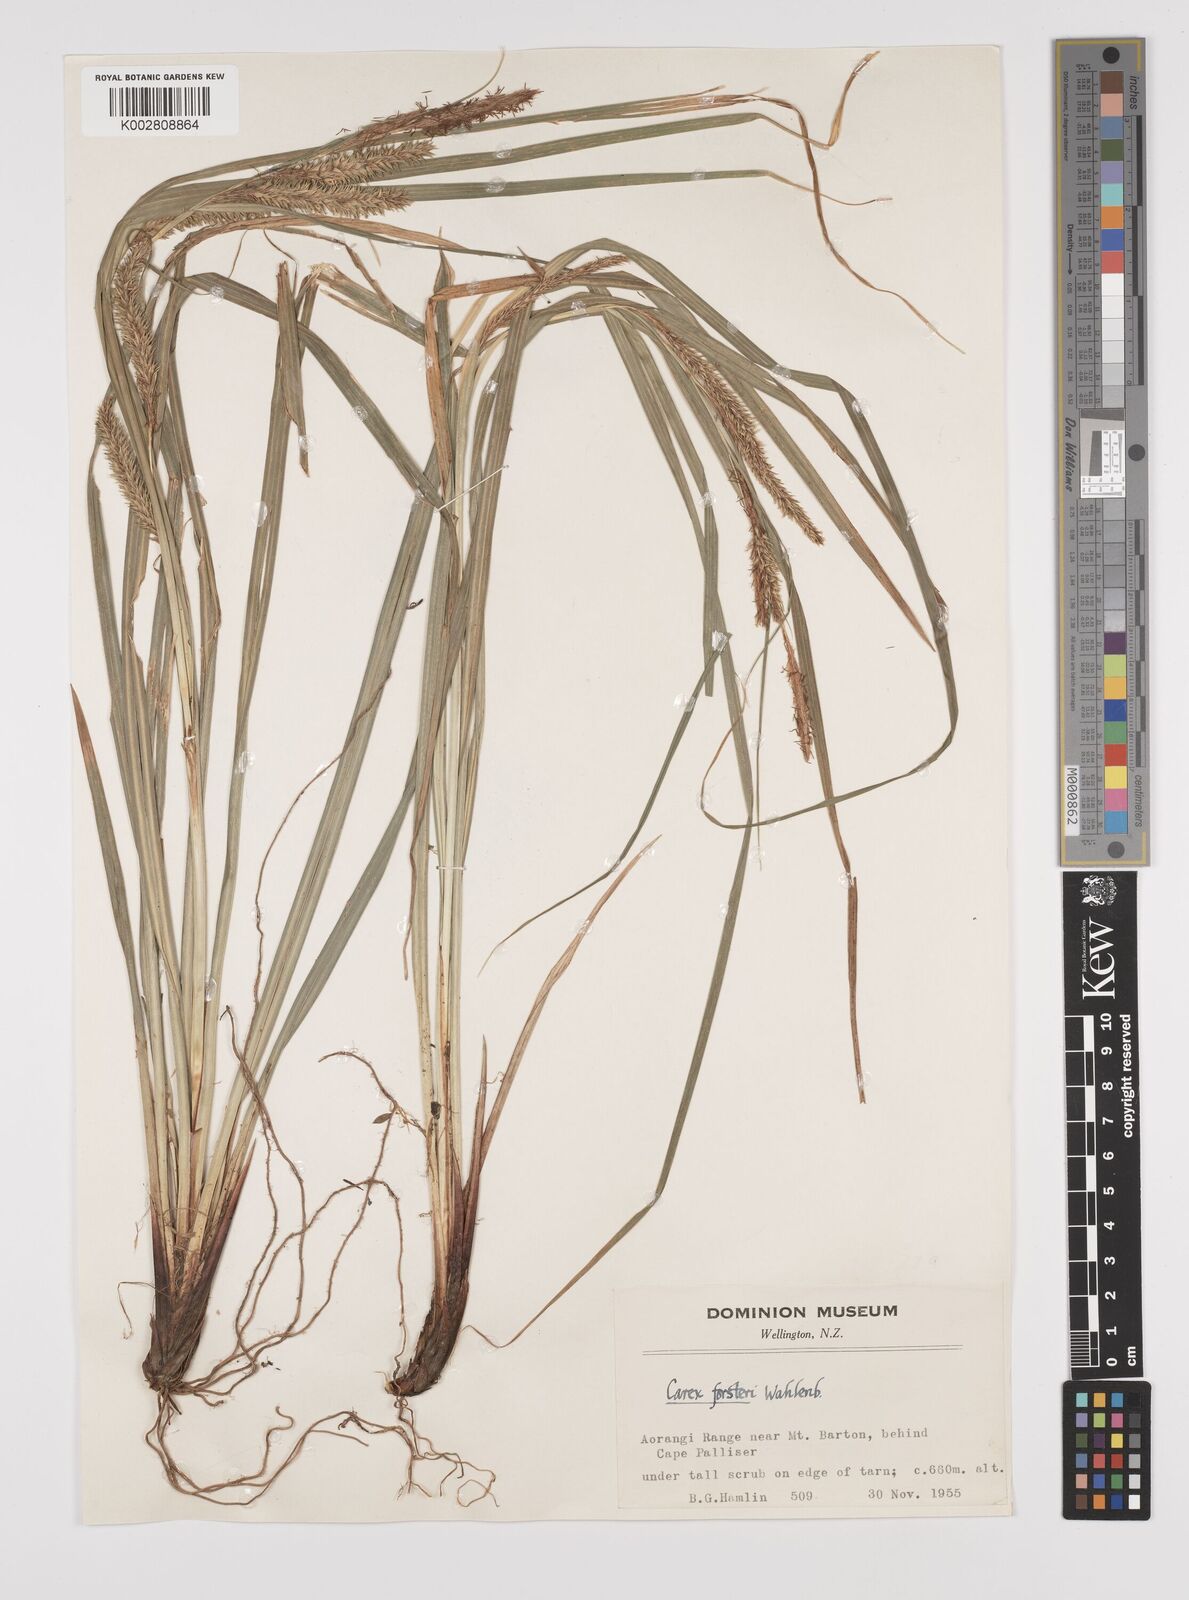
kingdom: Plantae
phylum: Tracheophyta
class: Liliopsida
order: Poales
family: Cyperaceae
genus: Carex
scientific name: Carex forsteri
